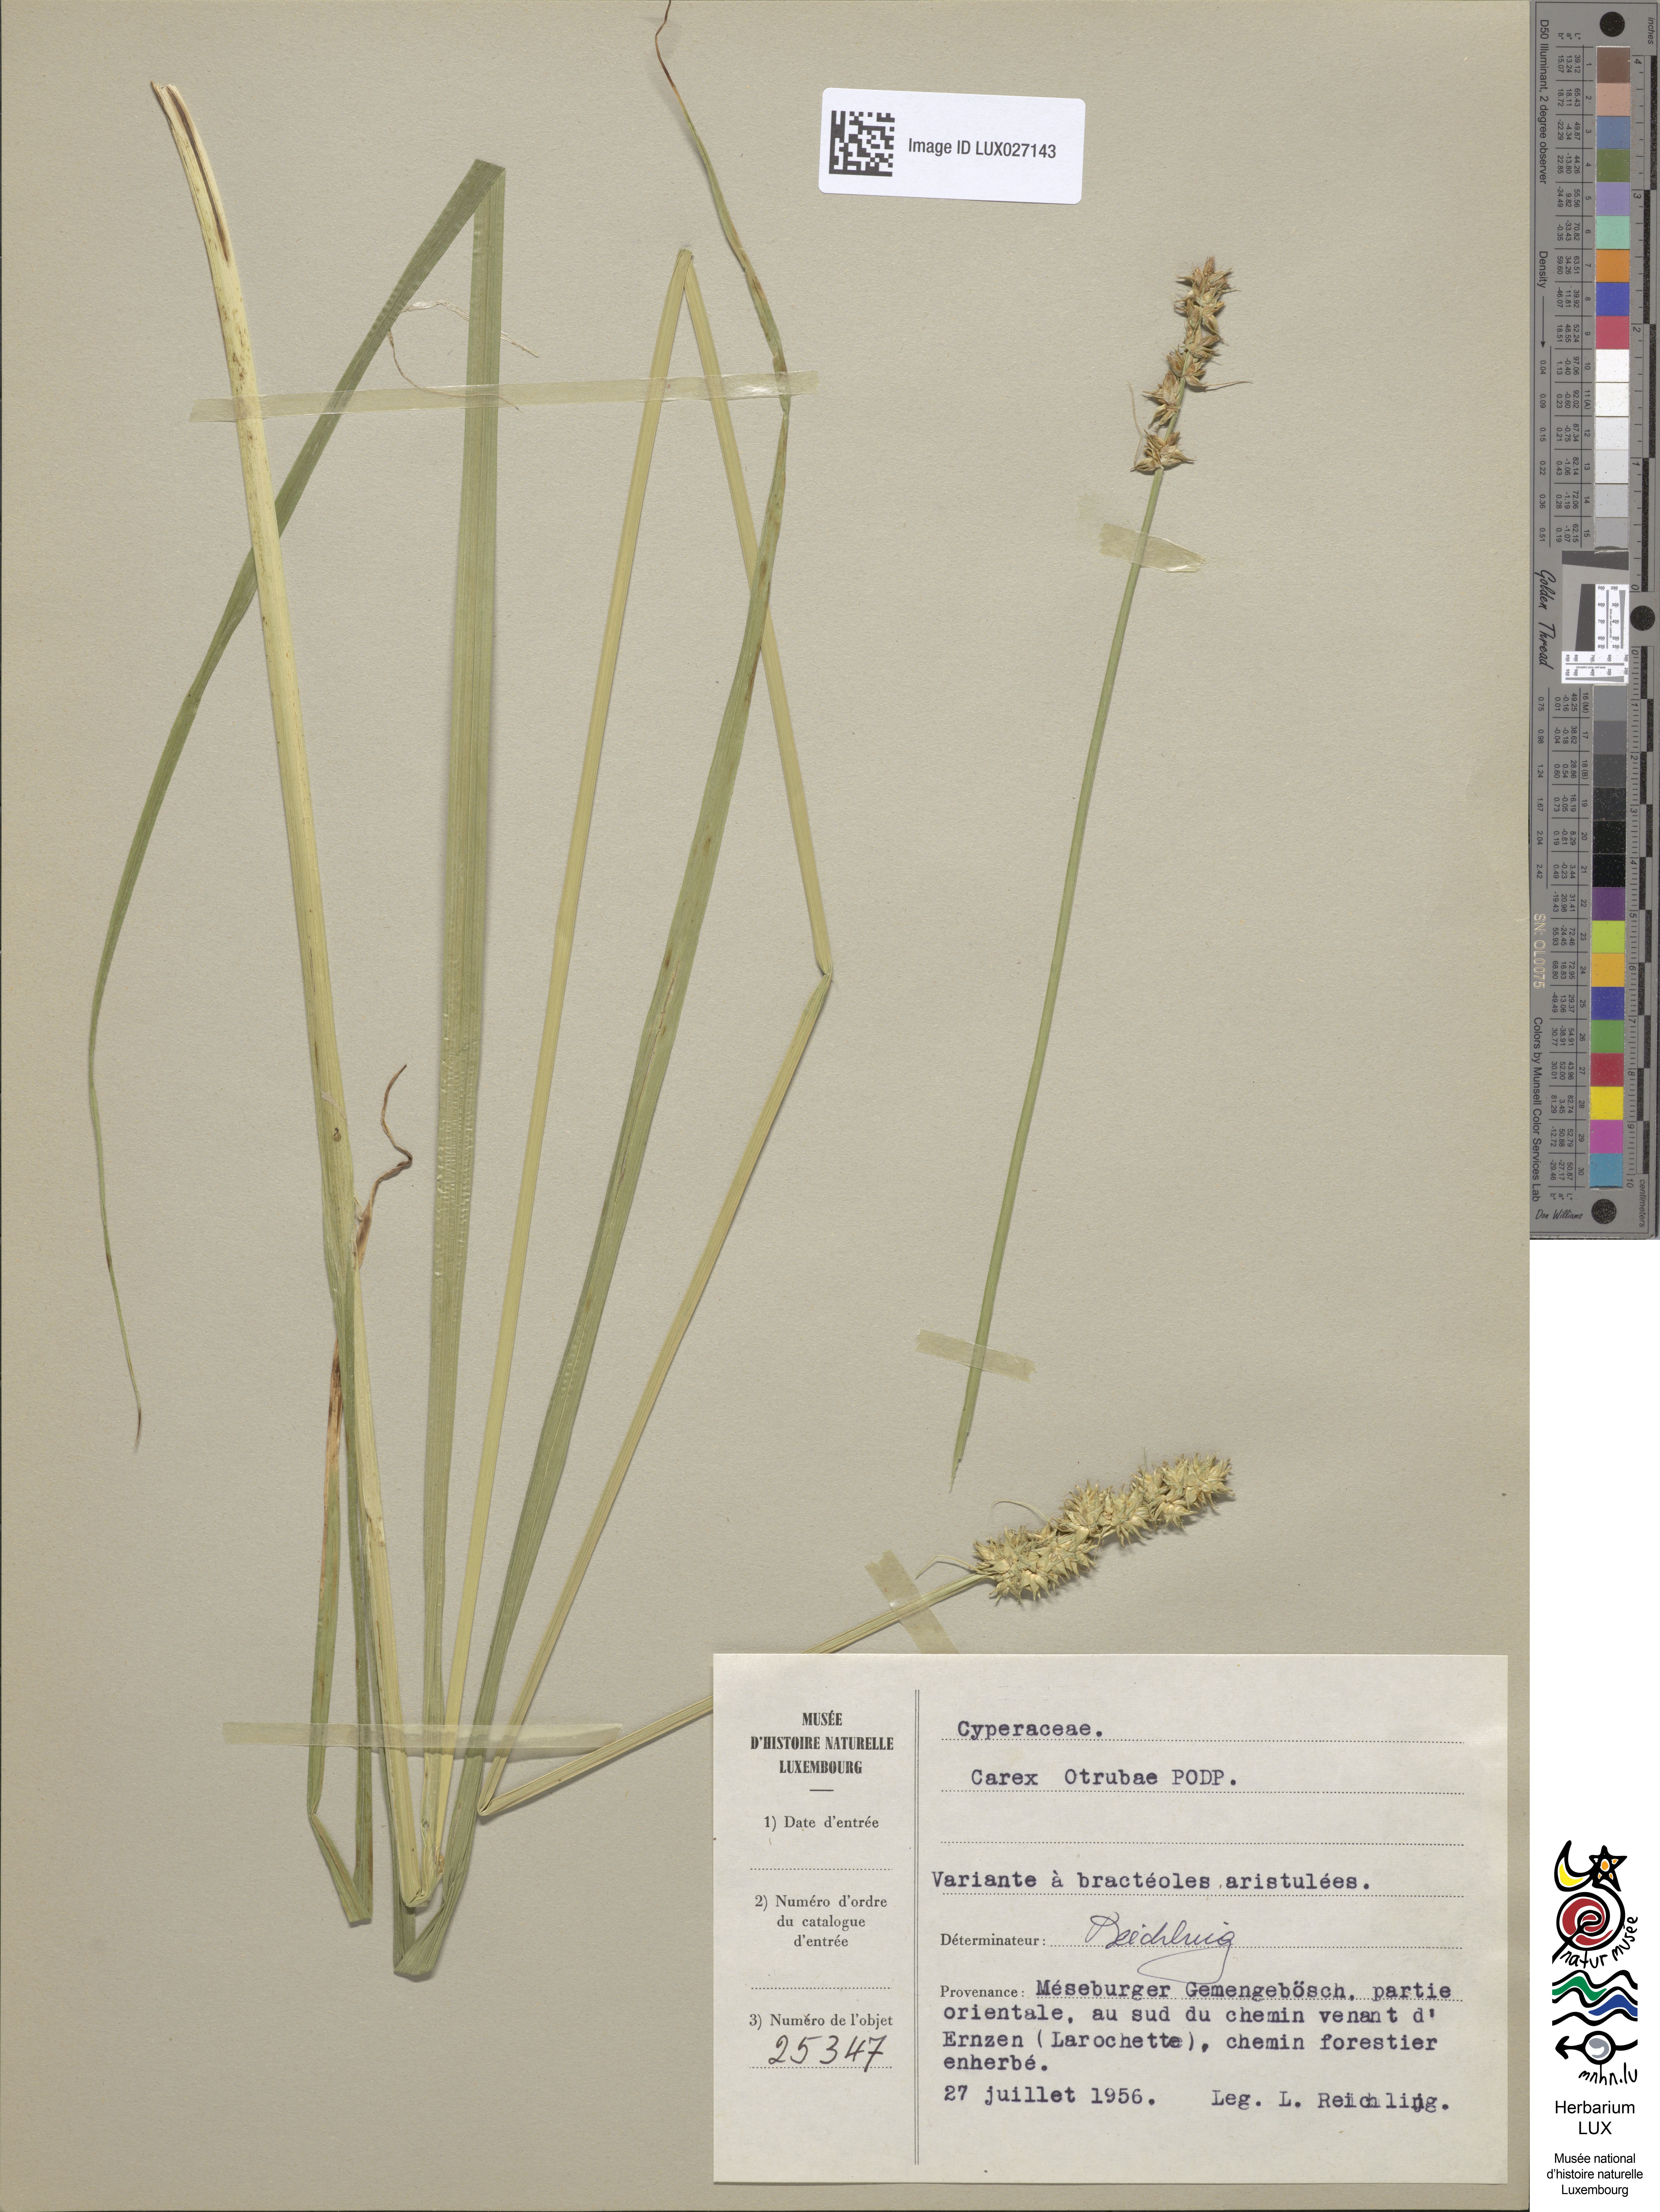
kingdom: Plantae
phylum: Tracheophyta
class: Liliopsida
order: Poales
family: Cyperaceae
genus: Carex
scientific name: Carex leersii
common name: Leers' sedge
